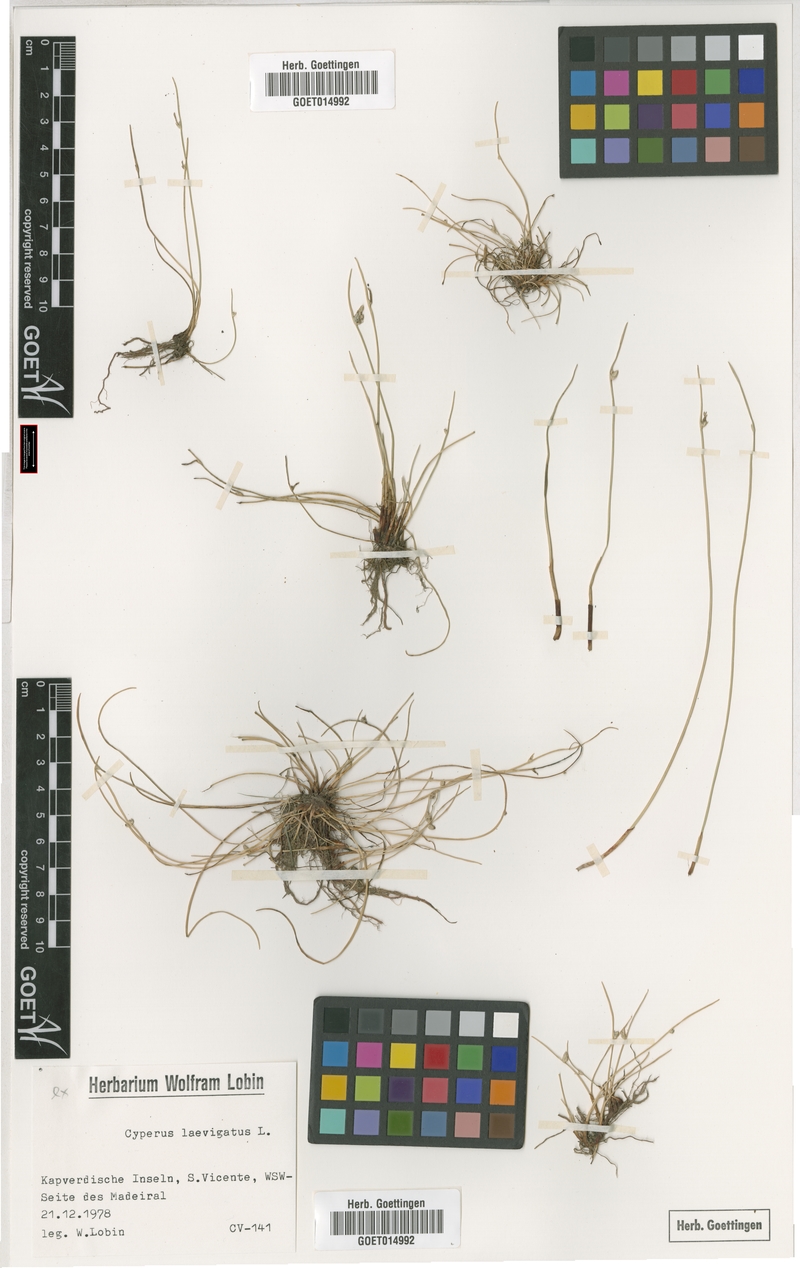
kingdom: Plantae
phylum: Tracheophyta
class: Liliopsida
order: Poales
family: Cyperaceae
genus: Cyperus
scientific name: Cyperus laevigatus
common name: Smooth flat sedge
